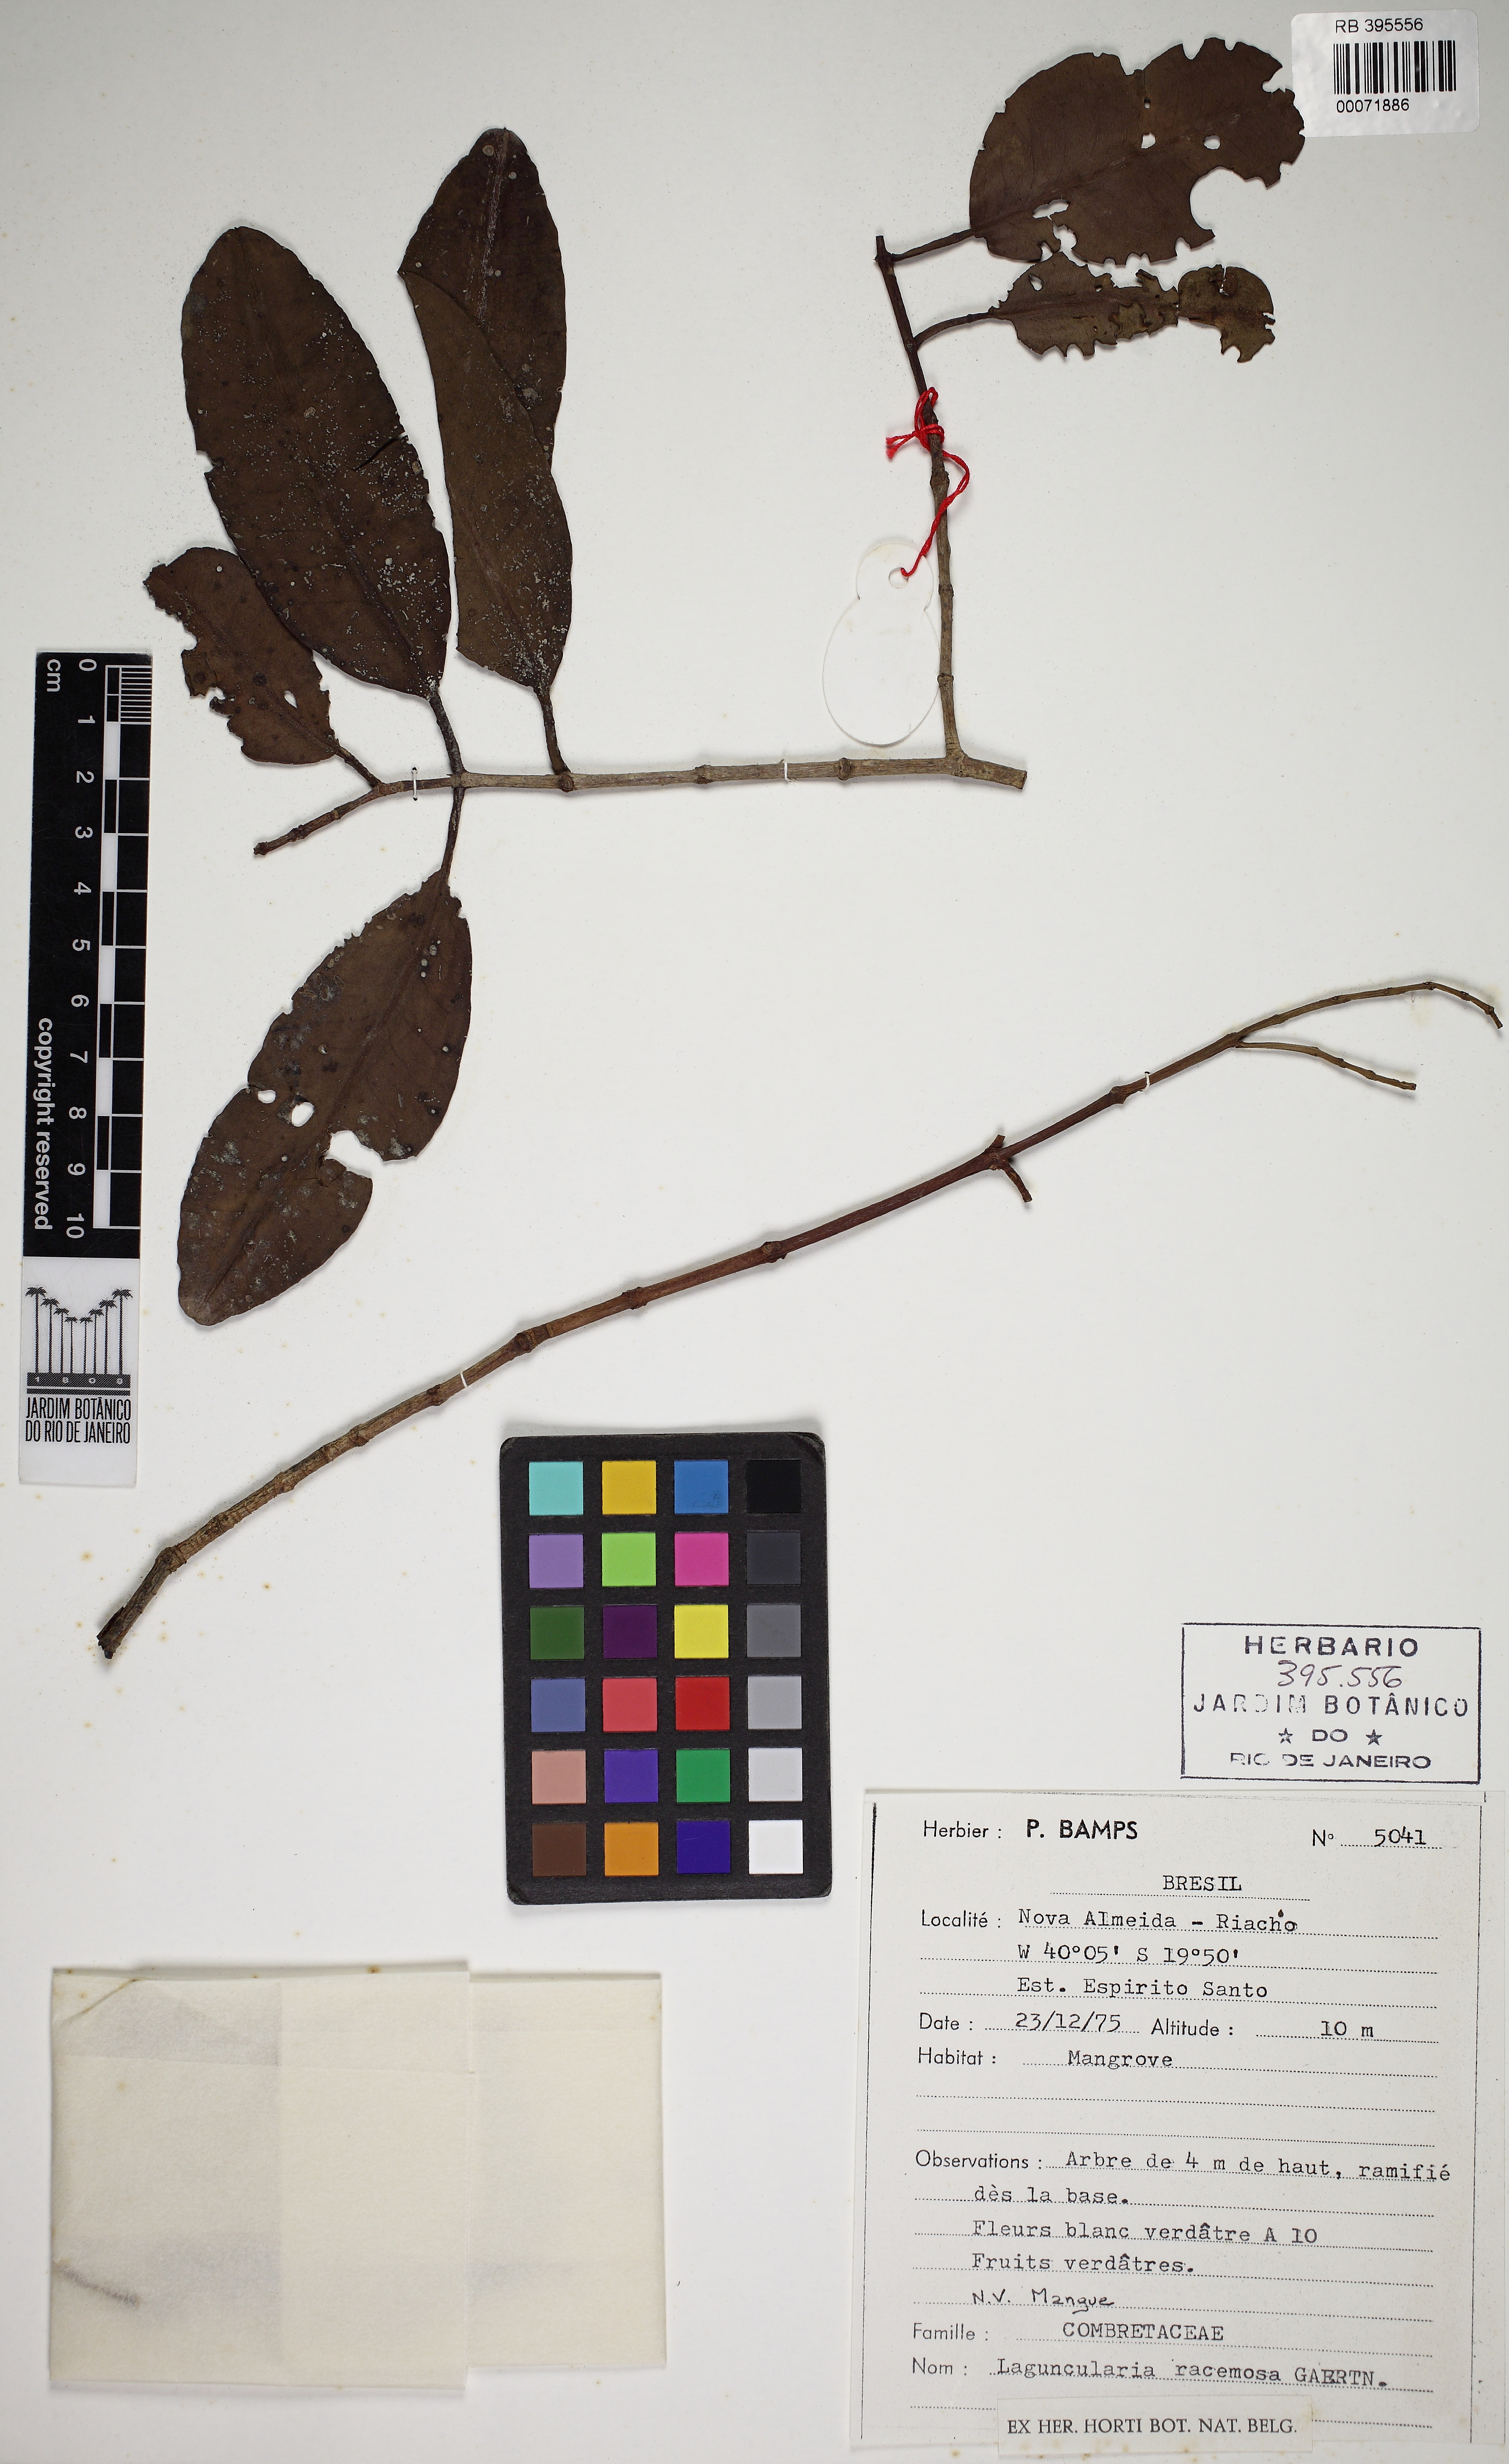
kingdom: Plantae
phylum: Tracheophyta
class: Magnoliopsida
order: Myrtales
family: Combretaceae
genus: Laguncularia
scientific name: Laguncularia racemosa
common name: White mangrove
